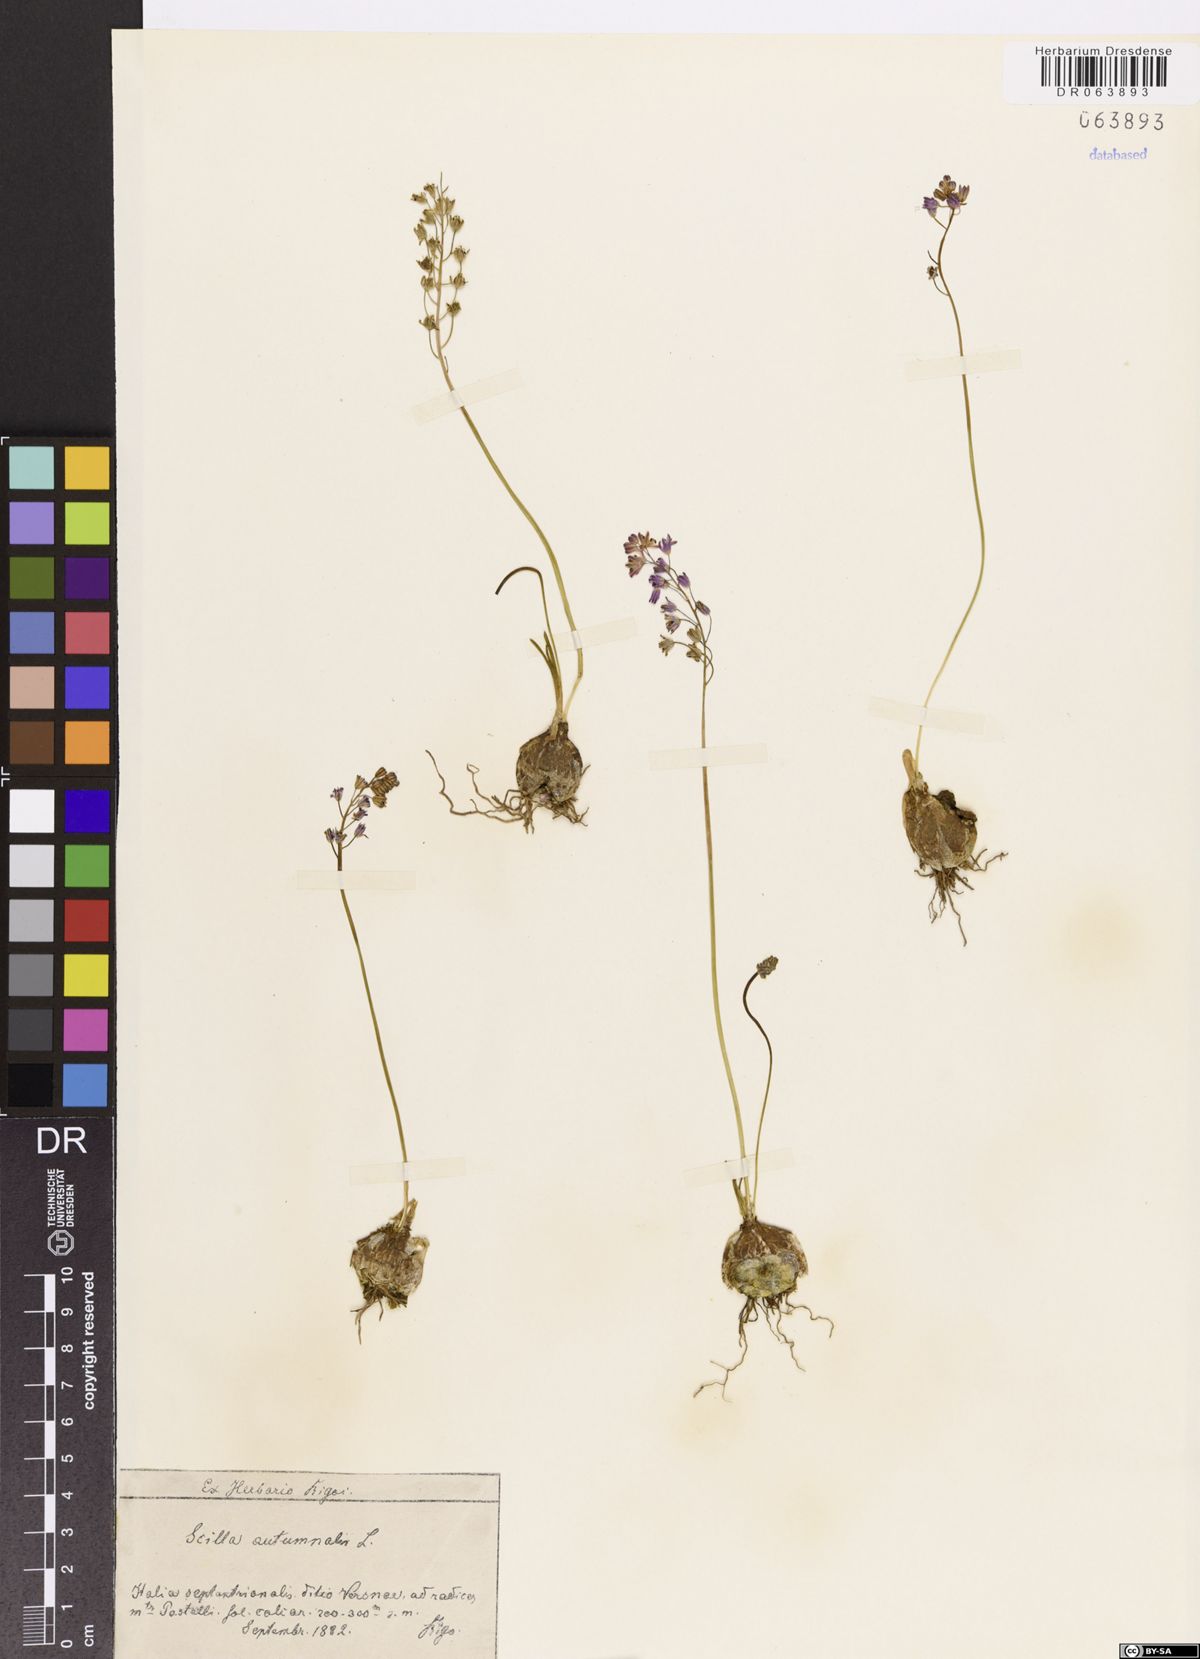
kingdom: Plantae
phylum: Tracheophyta
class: Liliopsida
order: Asparagales
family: Asparagaceae
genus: Prospero
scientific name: Prospero autumnale
